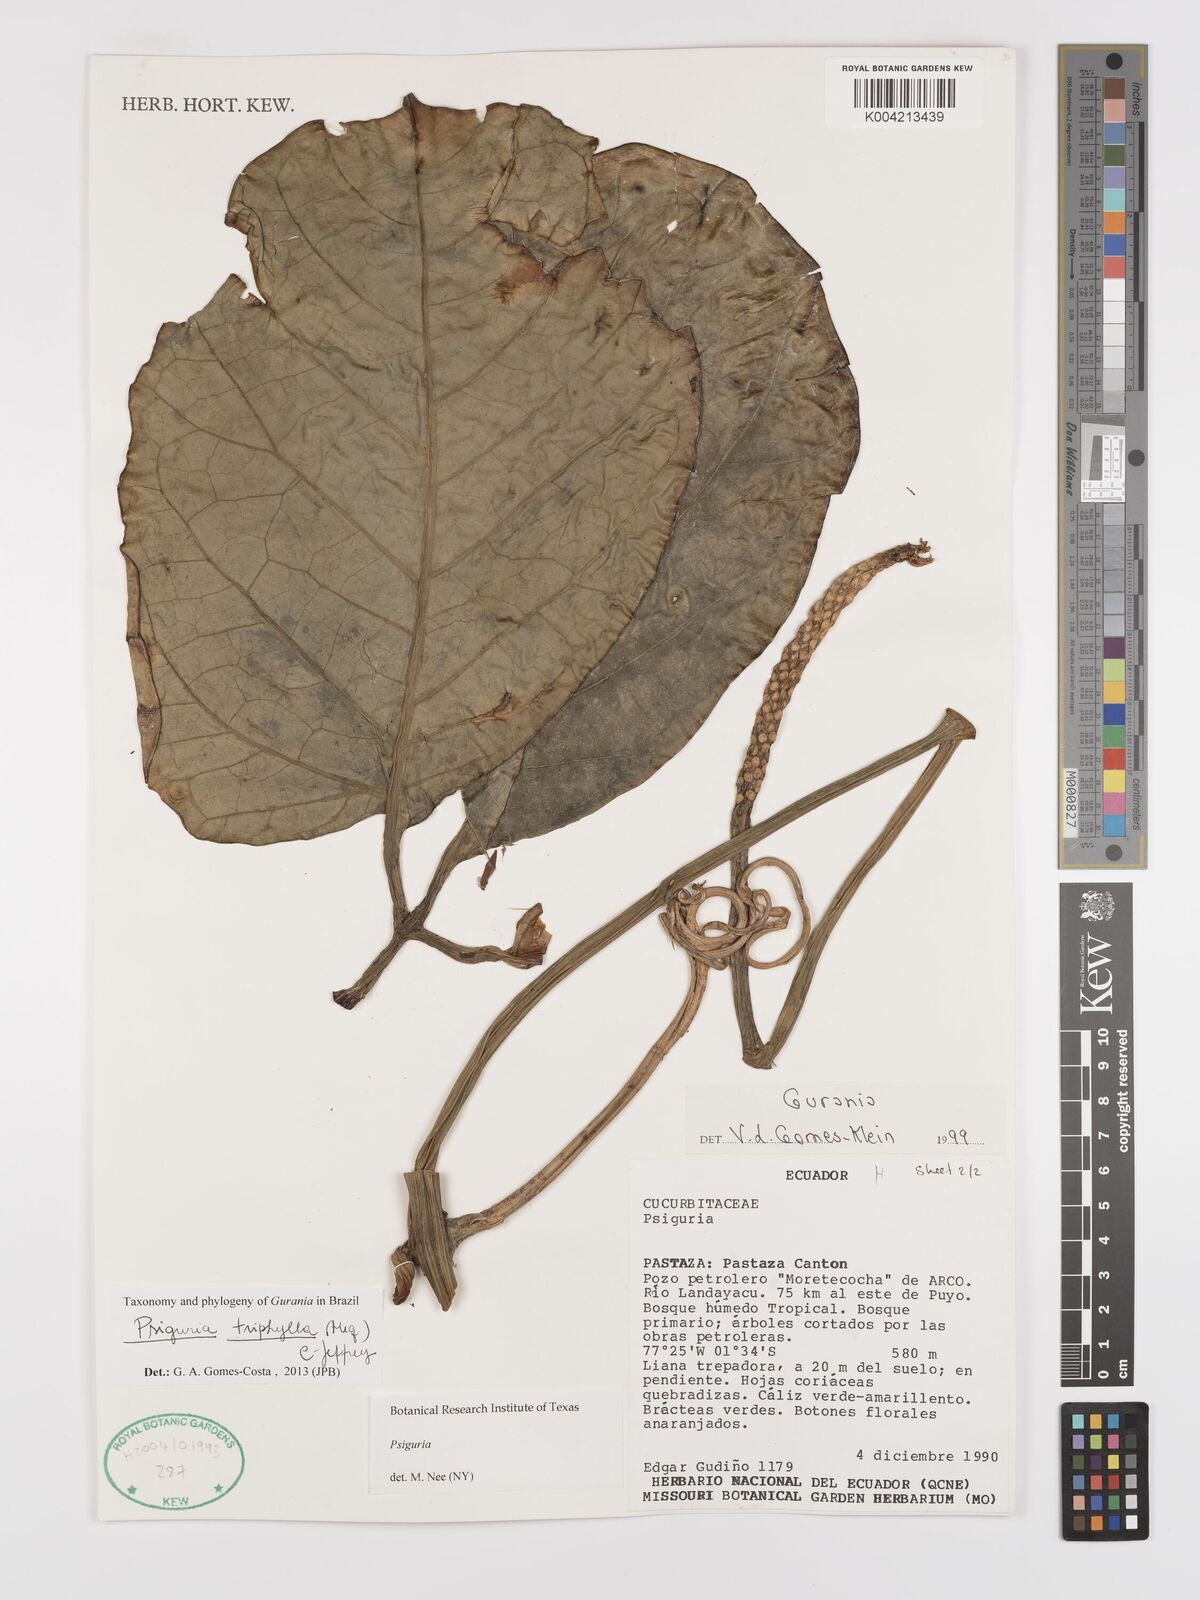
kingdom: Plantae
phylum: Tracheophyta
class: Magnoliopsida
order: Cucurbitales
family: Cucurbitaceae
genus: Psiguria
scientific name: Psiguria triphylla
